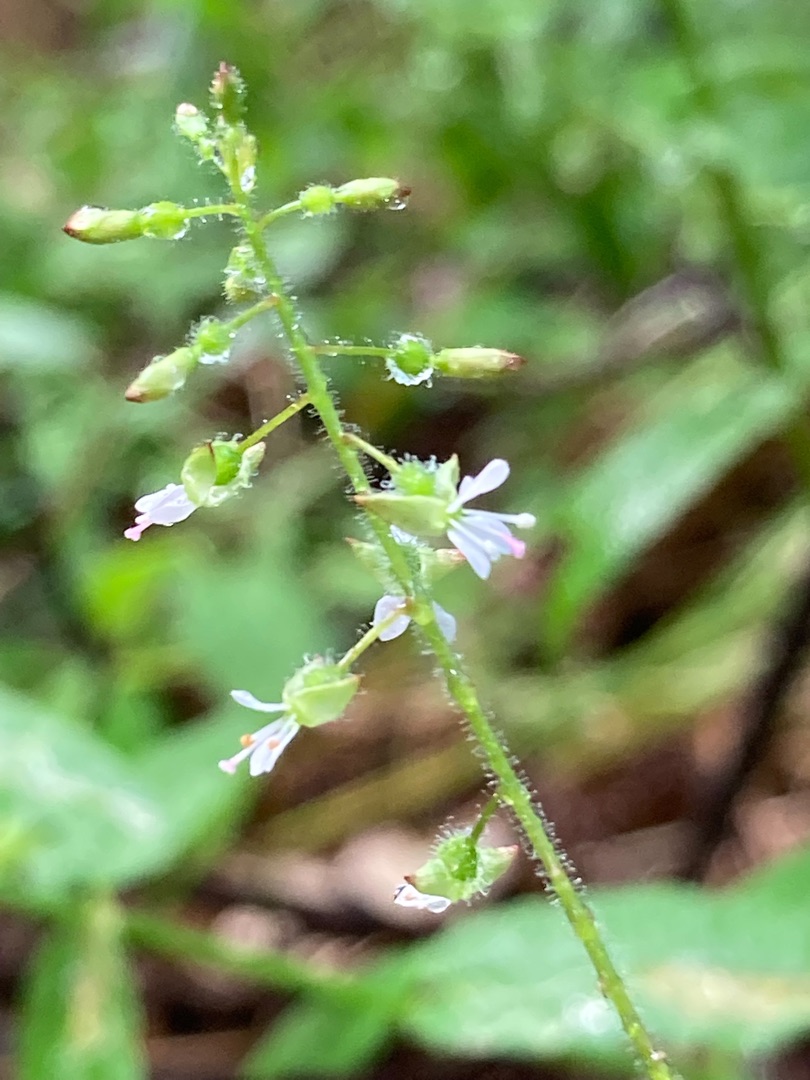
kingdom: Plantae
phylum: Tracheophyta
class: Magnoliopsida
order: Myrtales
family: Onagraceae
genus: Circaea
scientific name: Circaea lutetiana
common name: Dunet steffensurt
